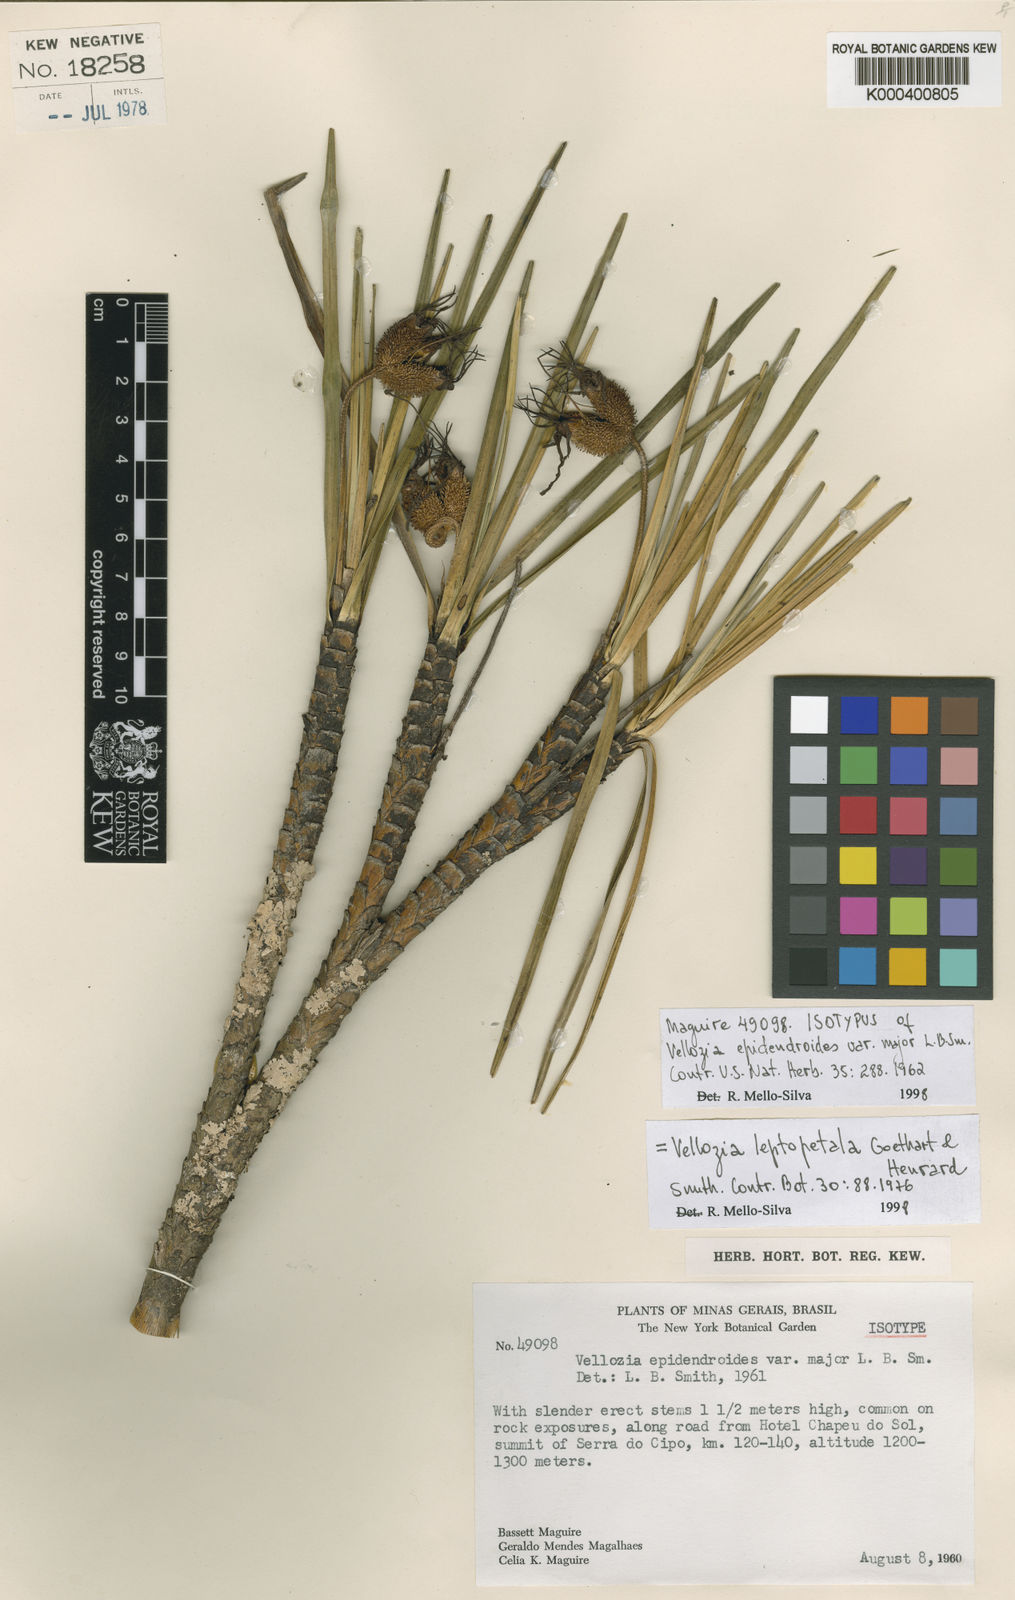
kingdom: Plantae
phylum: Tracheophyta
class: Liliopsida
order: Pandanales
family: Velloziaceae
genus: Vellozia
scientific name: Vellozia ornithophila
